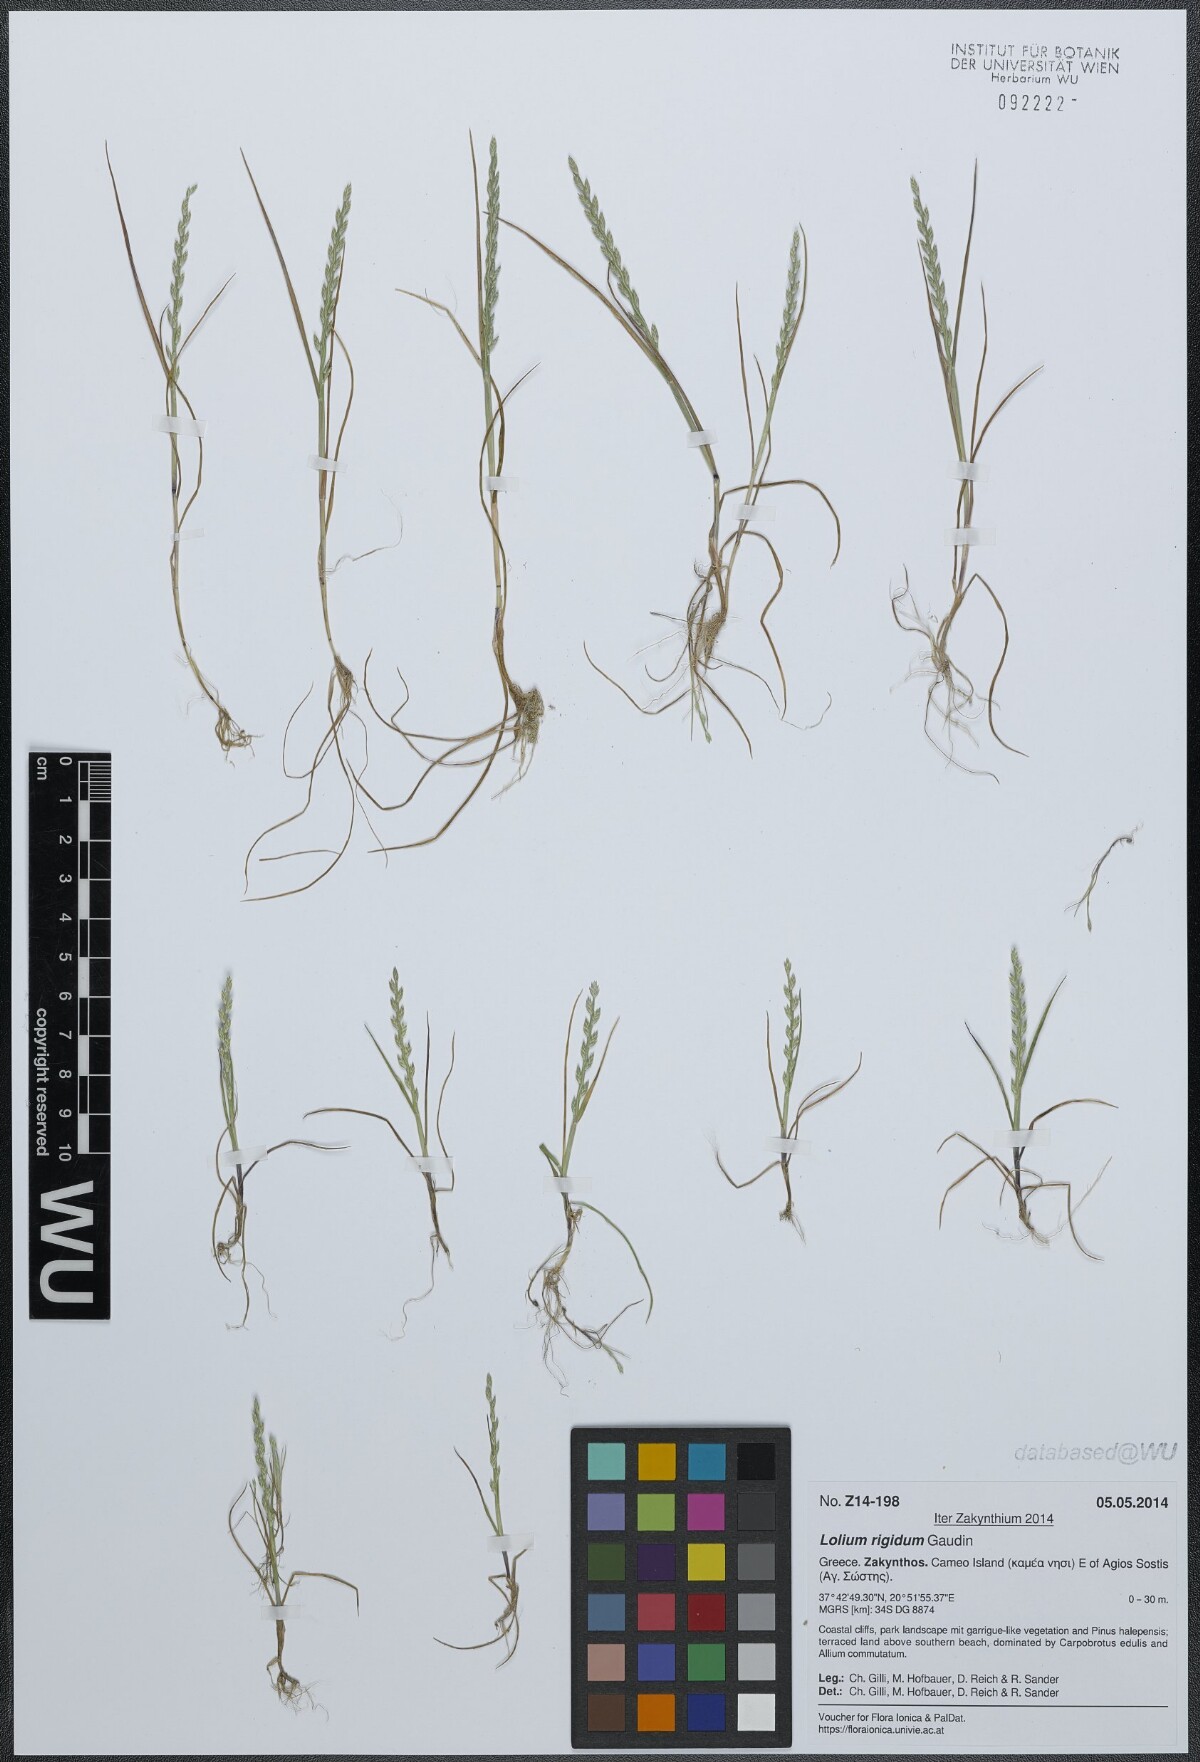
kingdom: Plantae
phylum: Tracheophyta
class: Liliopsida
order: Poales
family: Poaceae
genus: Catapodium
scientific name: Catapodium marinum
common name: Sea fern-grass
